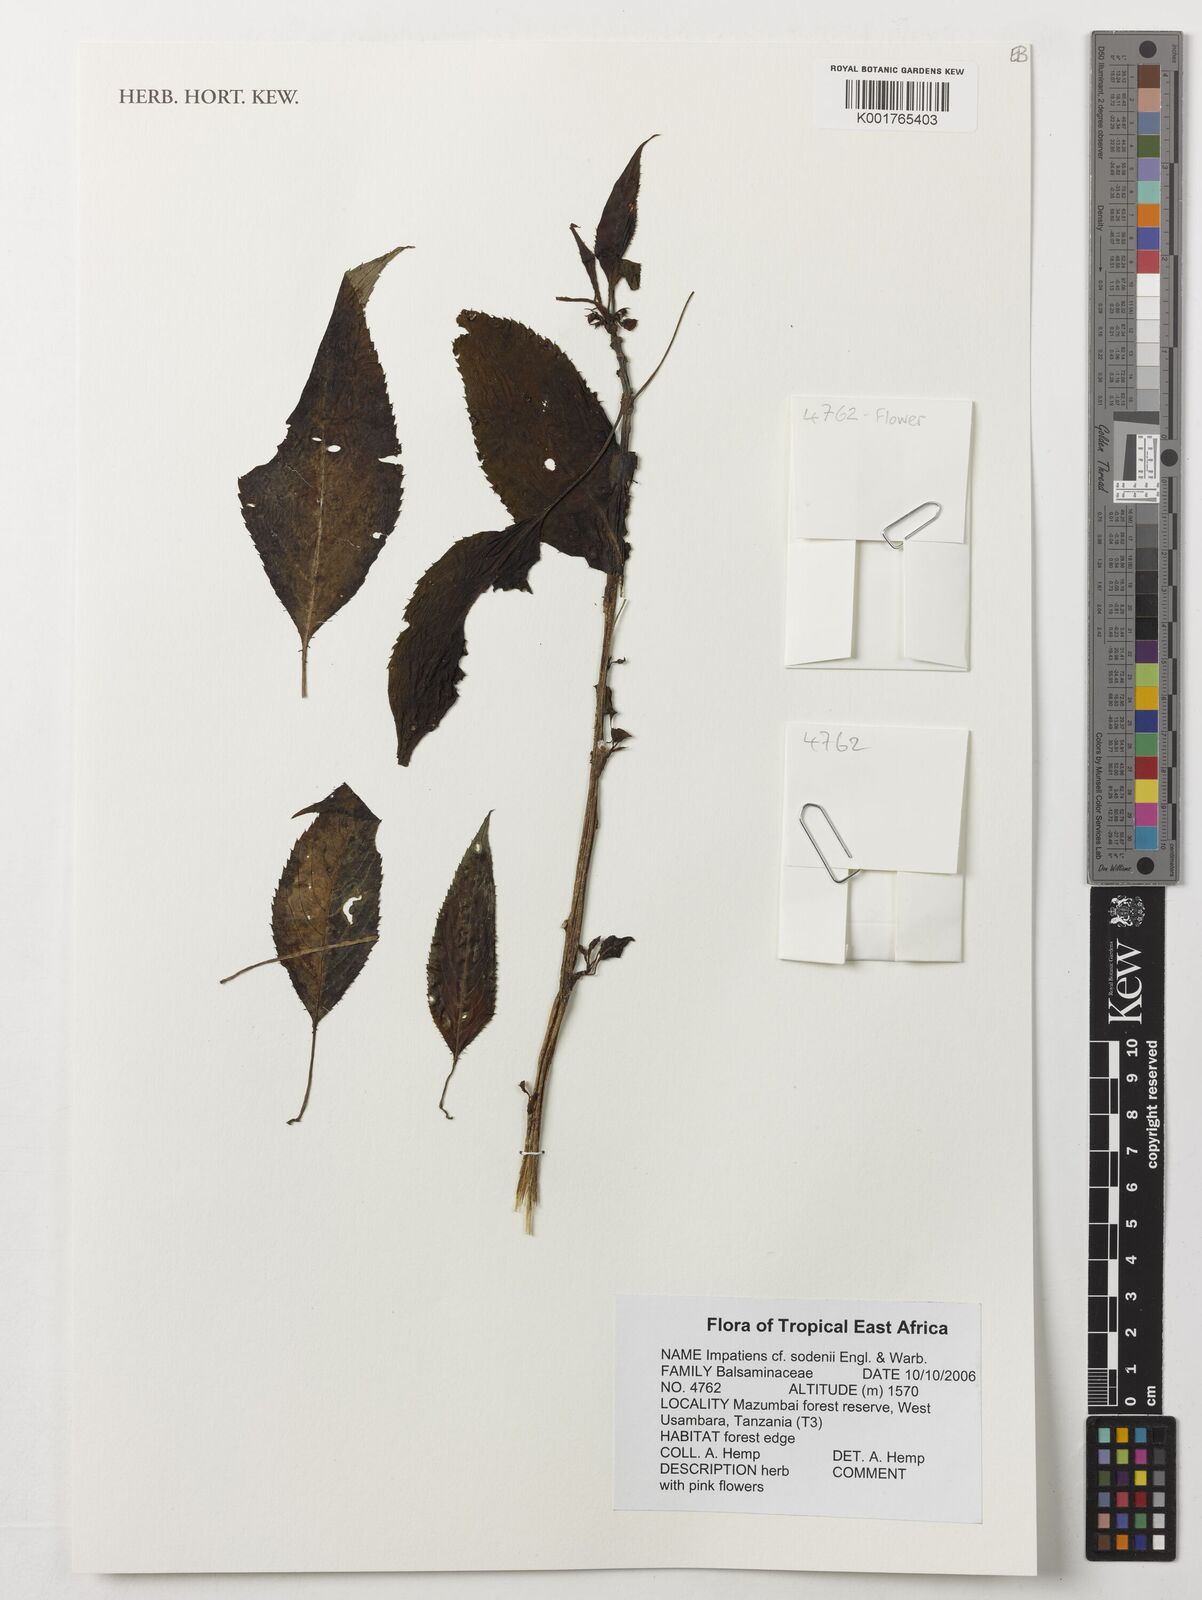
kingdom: Plantae
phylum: Tracheophyta
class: Magnoliopsida
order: Ericales
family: Balsaminaceae
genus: Impatiens
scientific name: Impatiens sodenii
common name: Oliver's touch-me-not
